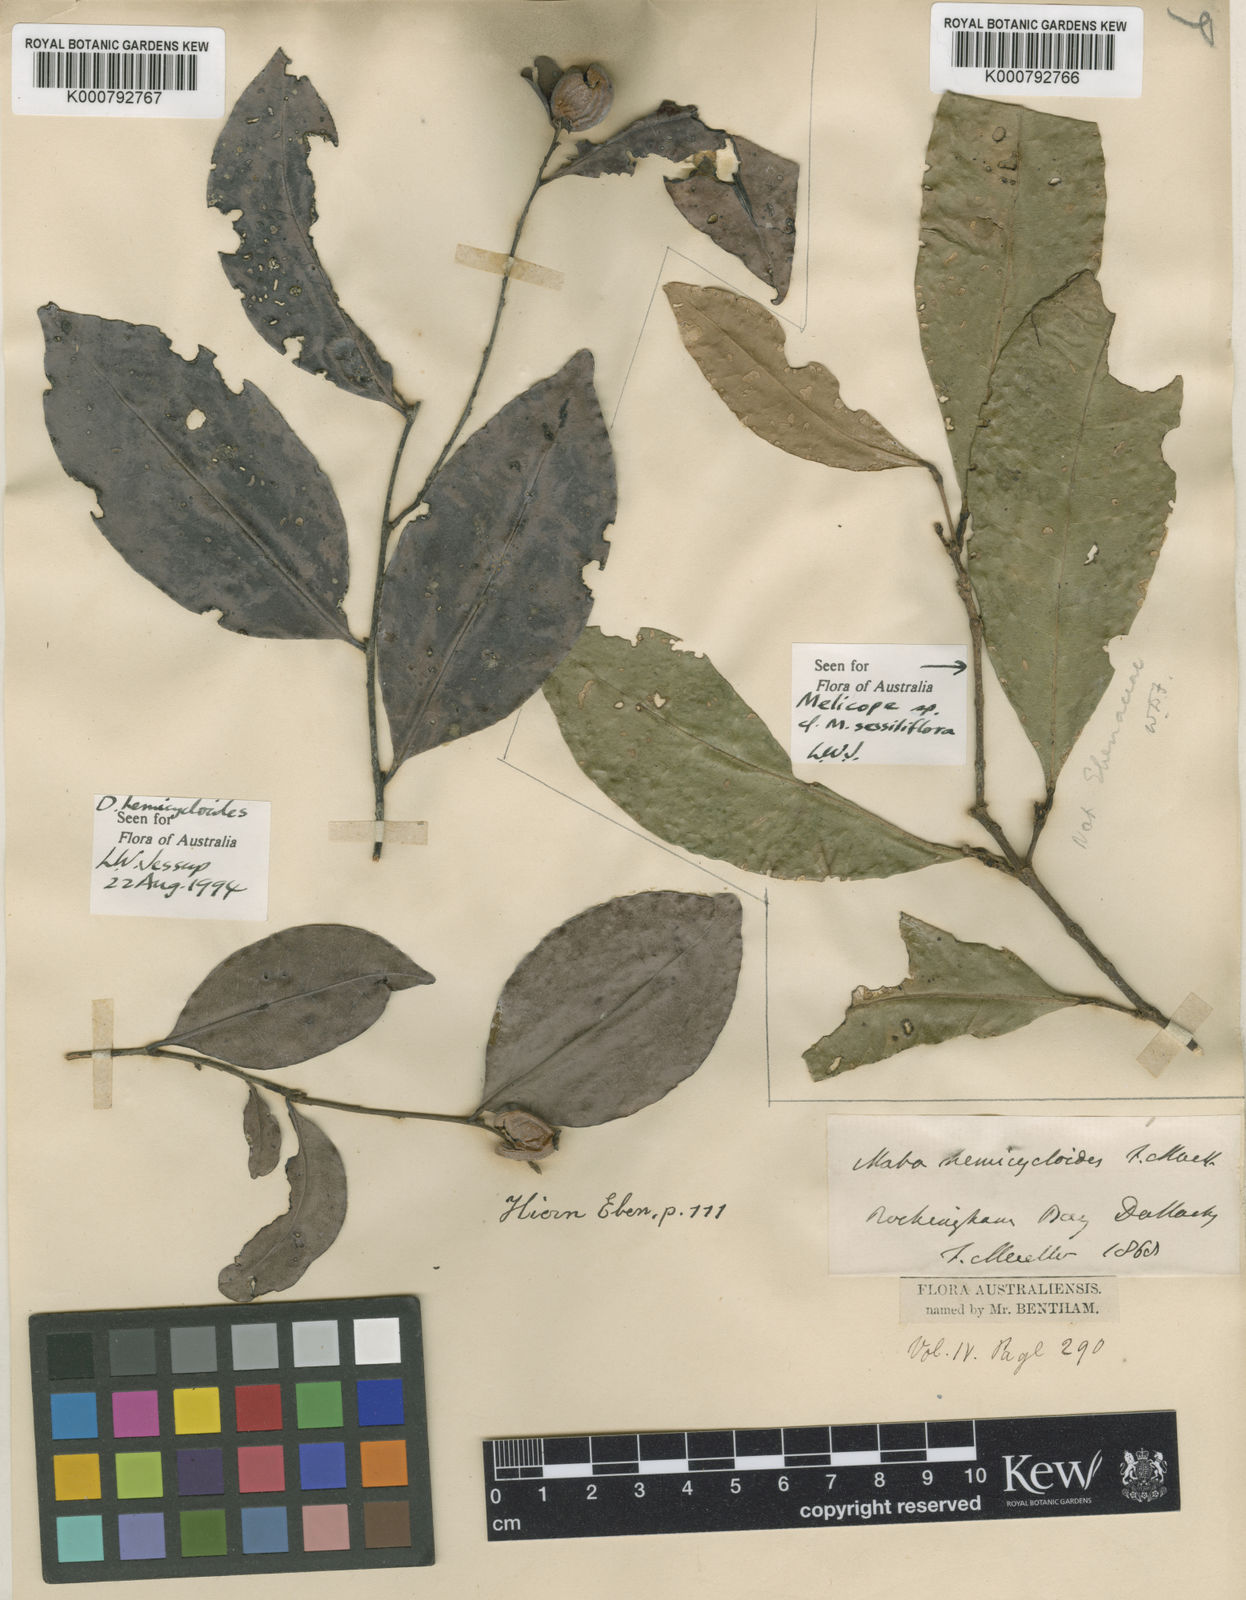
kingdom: Plantae
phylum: Tracheophyta
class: Magnoliopsida
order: Ericales
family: Ebenaceae
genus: Diospyros
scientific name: Diospyros hemicycloides
